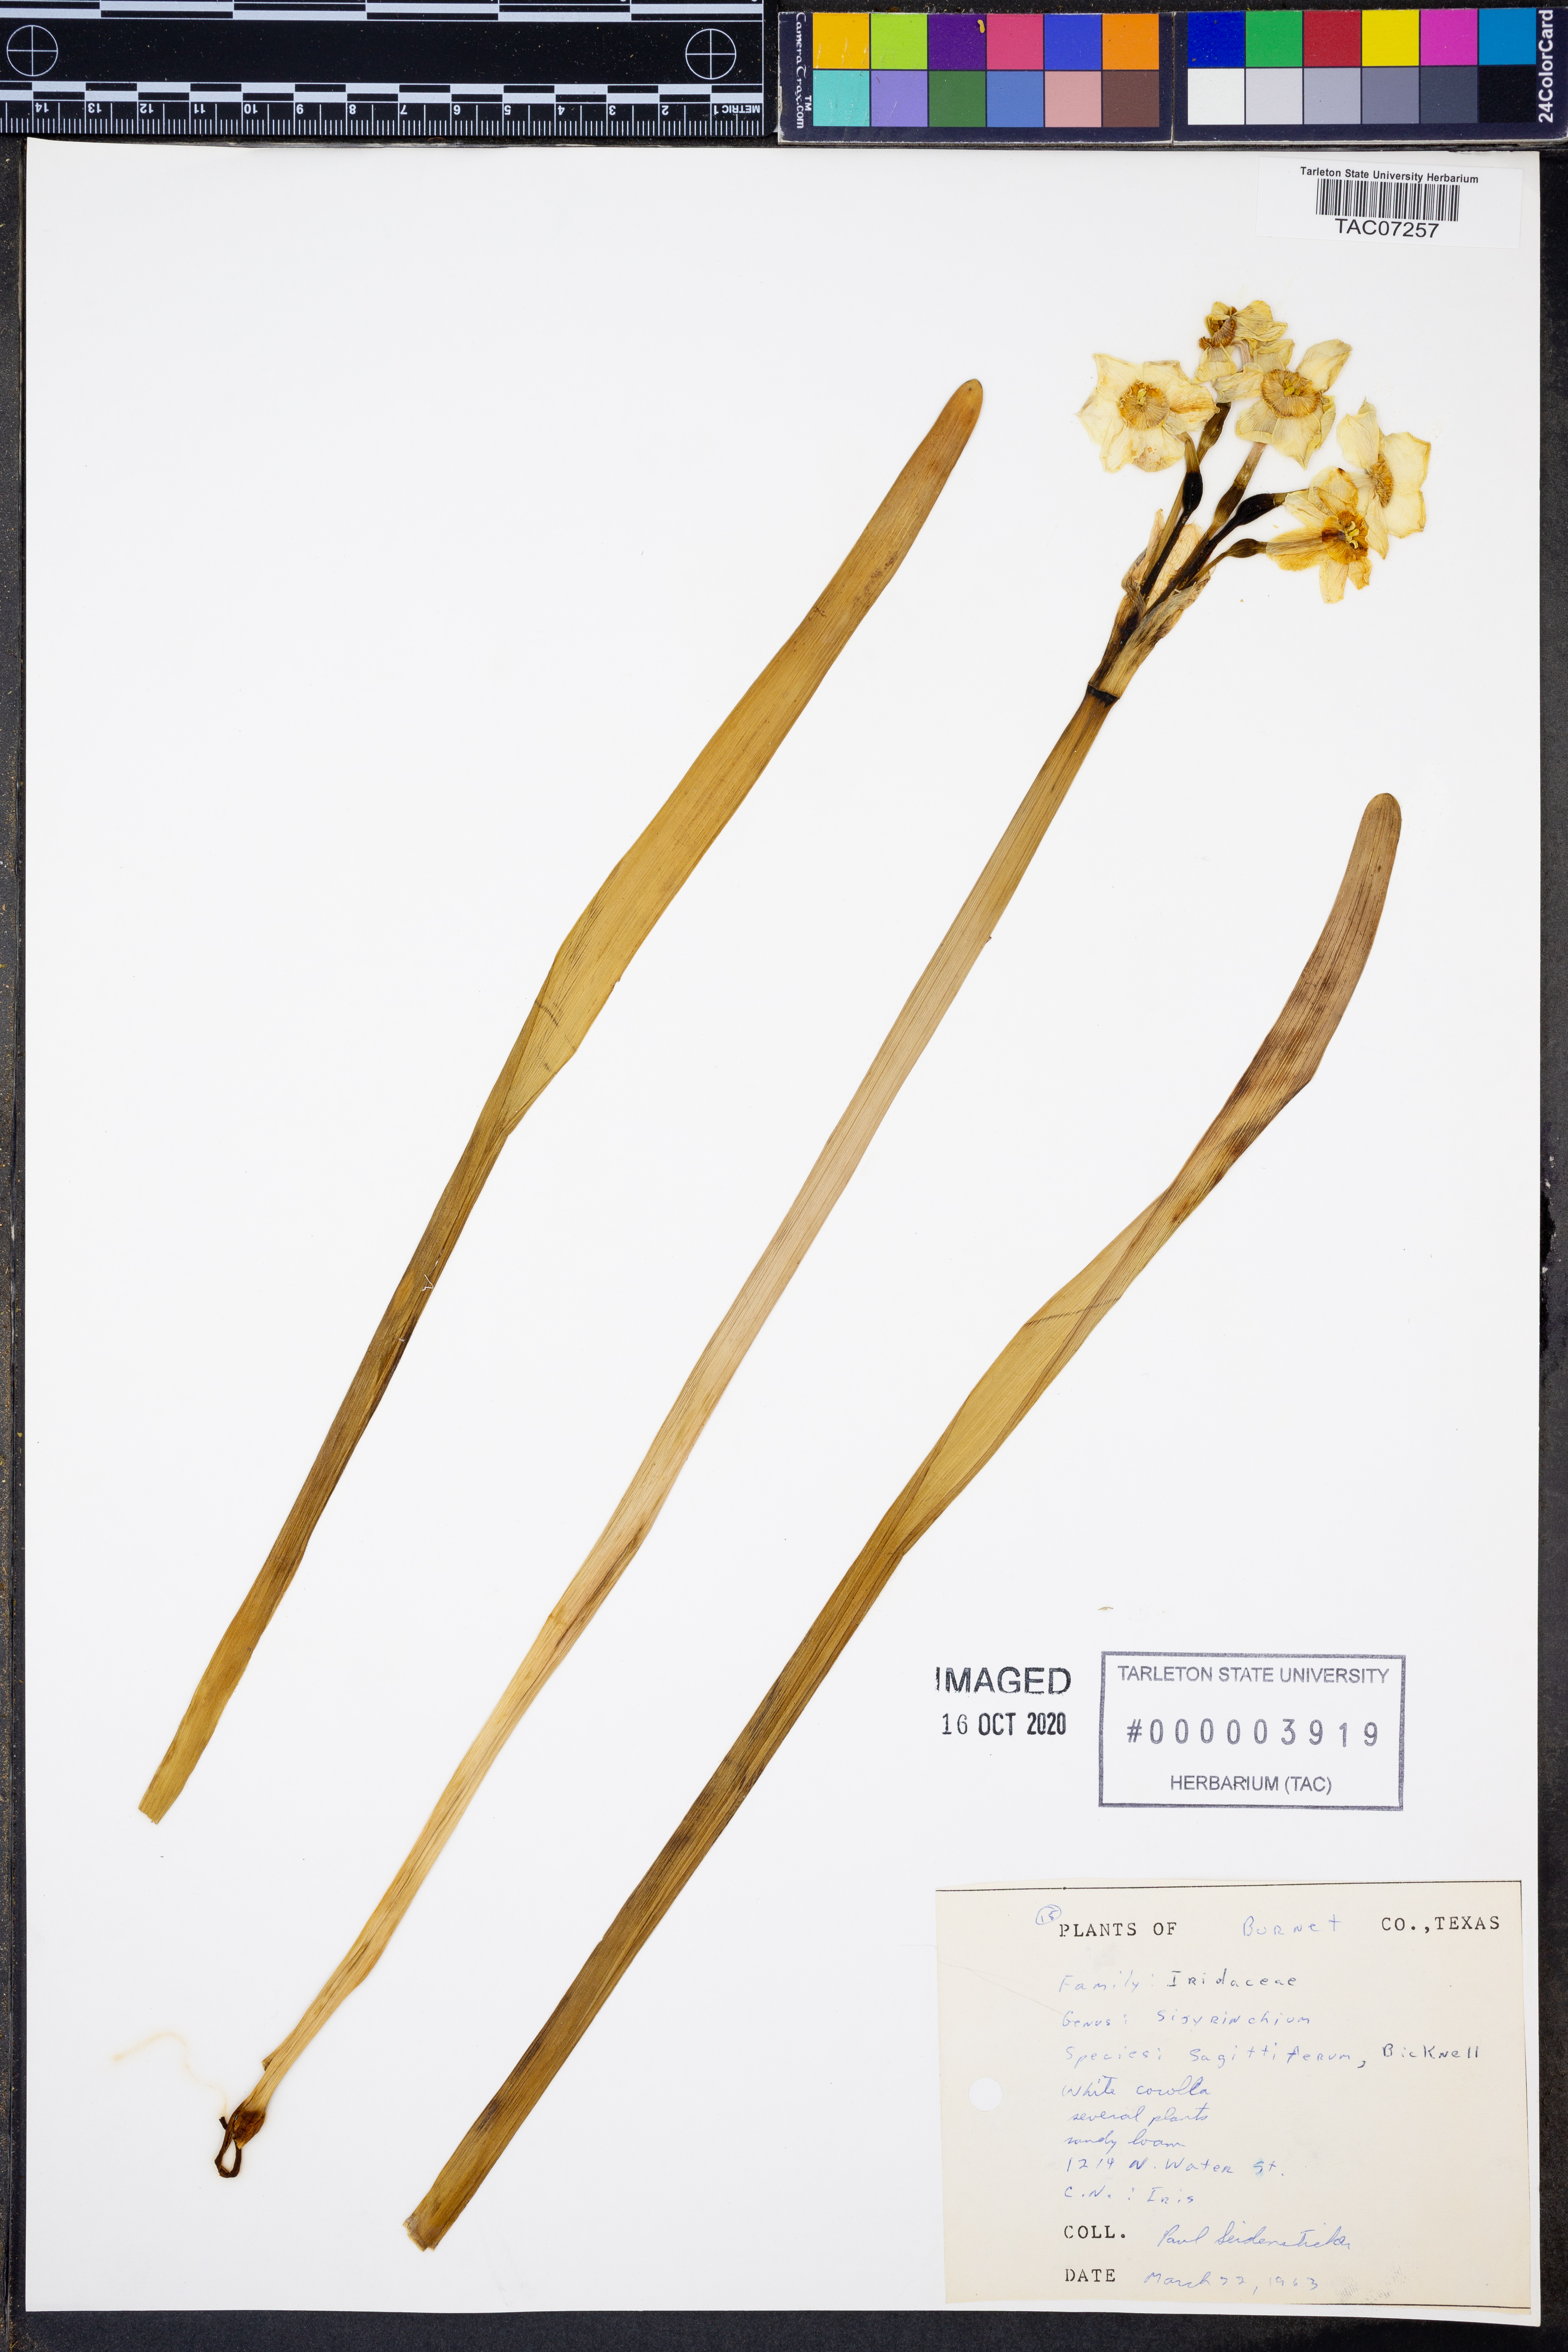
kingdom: Plantae
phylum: Tracheophyta
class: Liliopsida
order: Asparagales
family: Iridaceae
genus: Sisyrinchium
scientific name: Sisyrinchium sagittiferum
